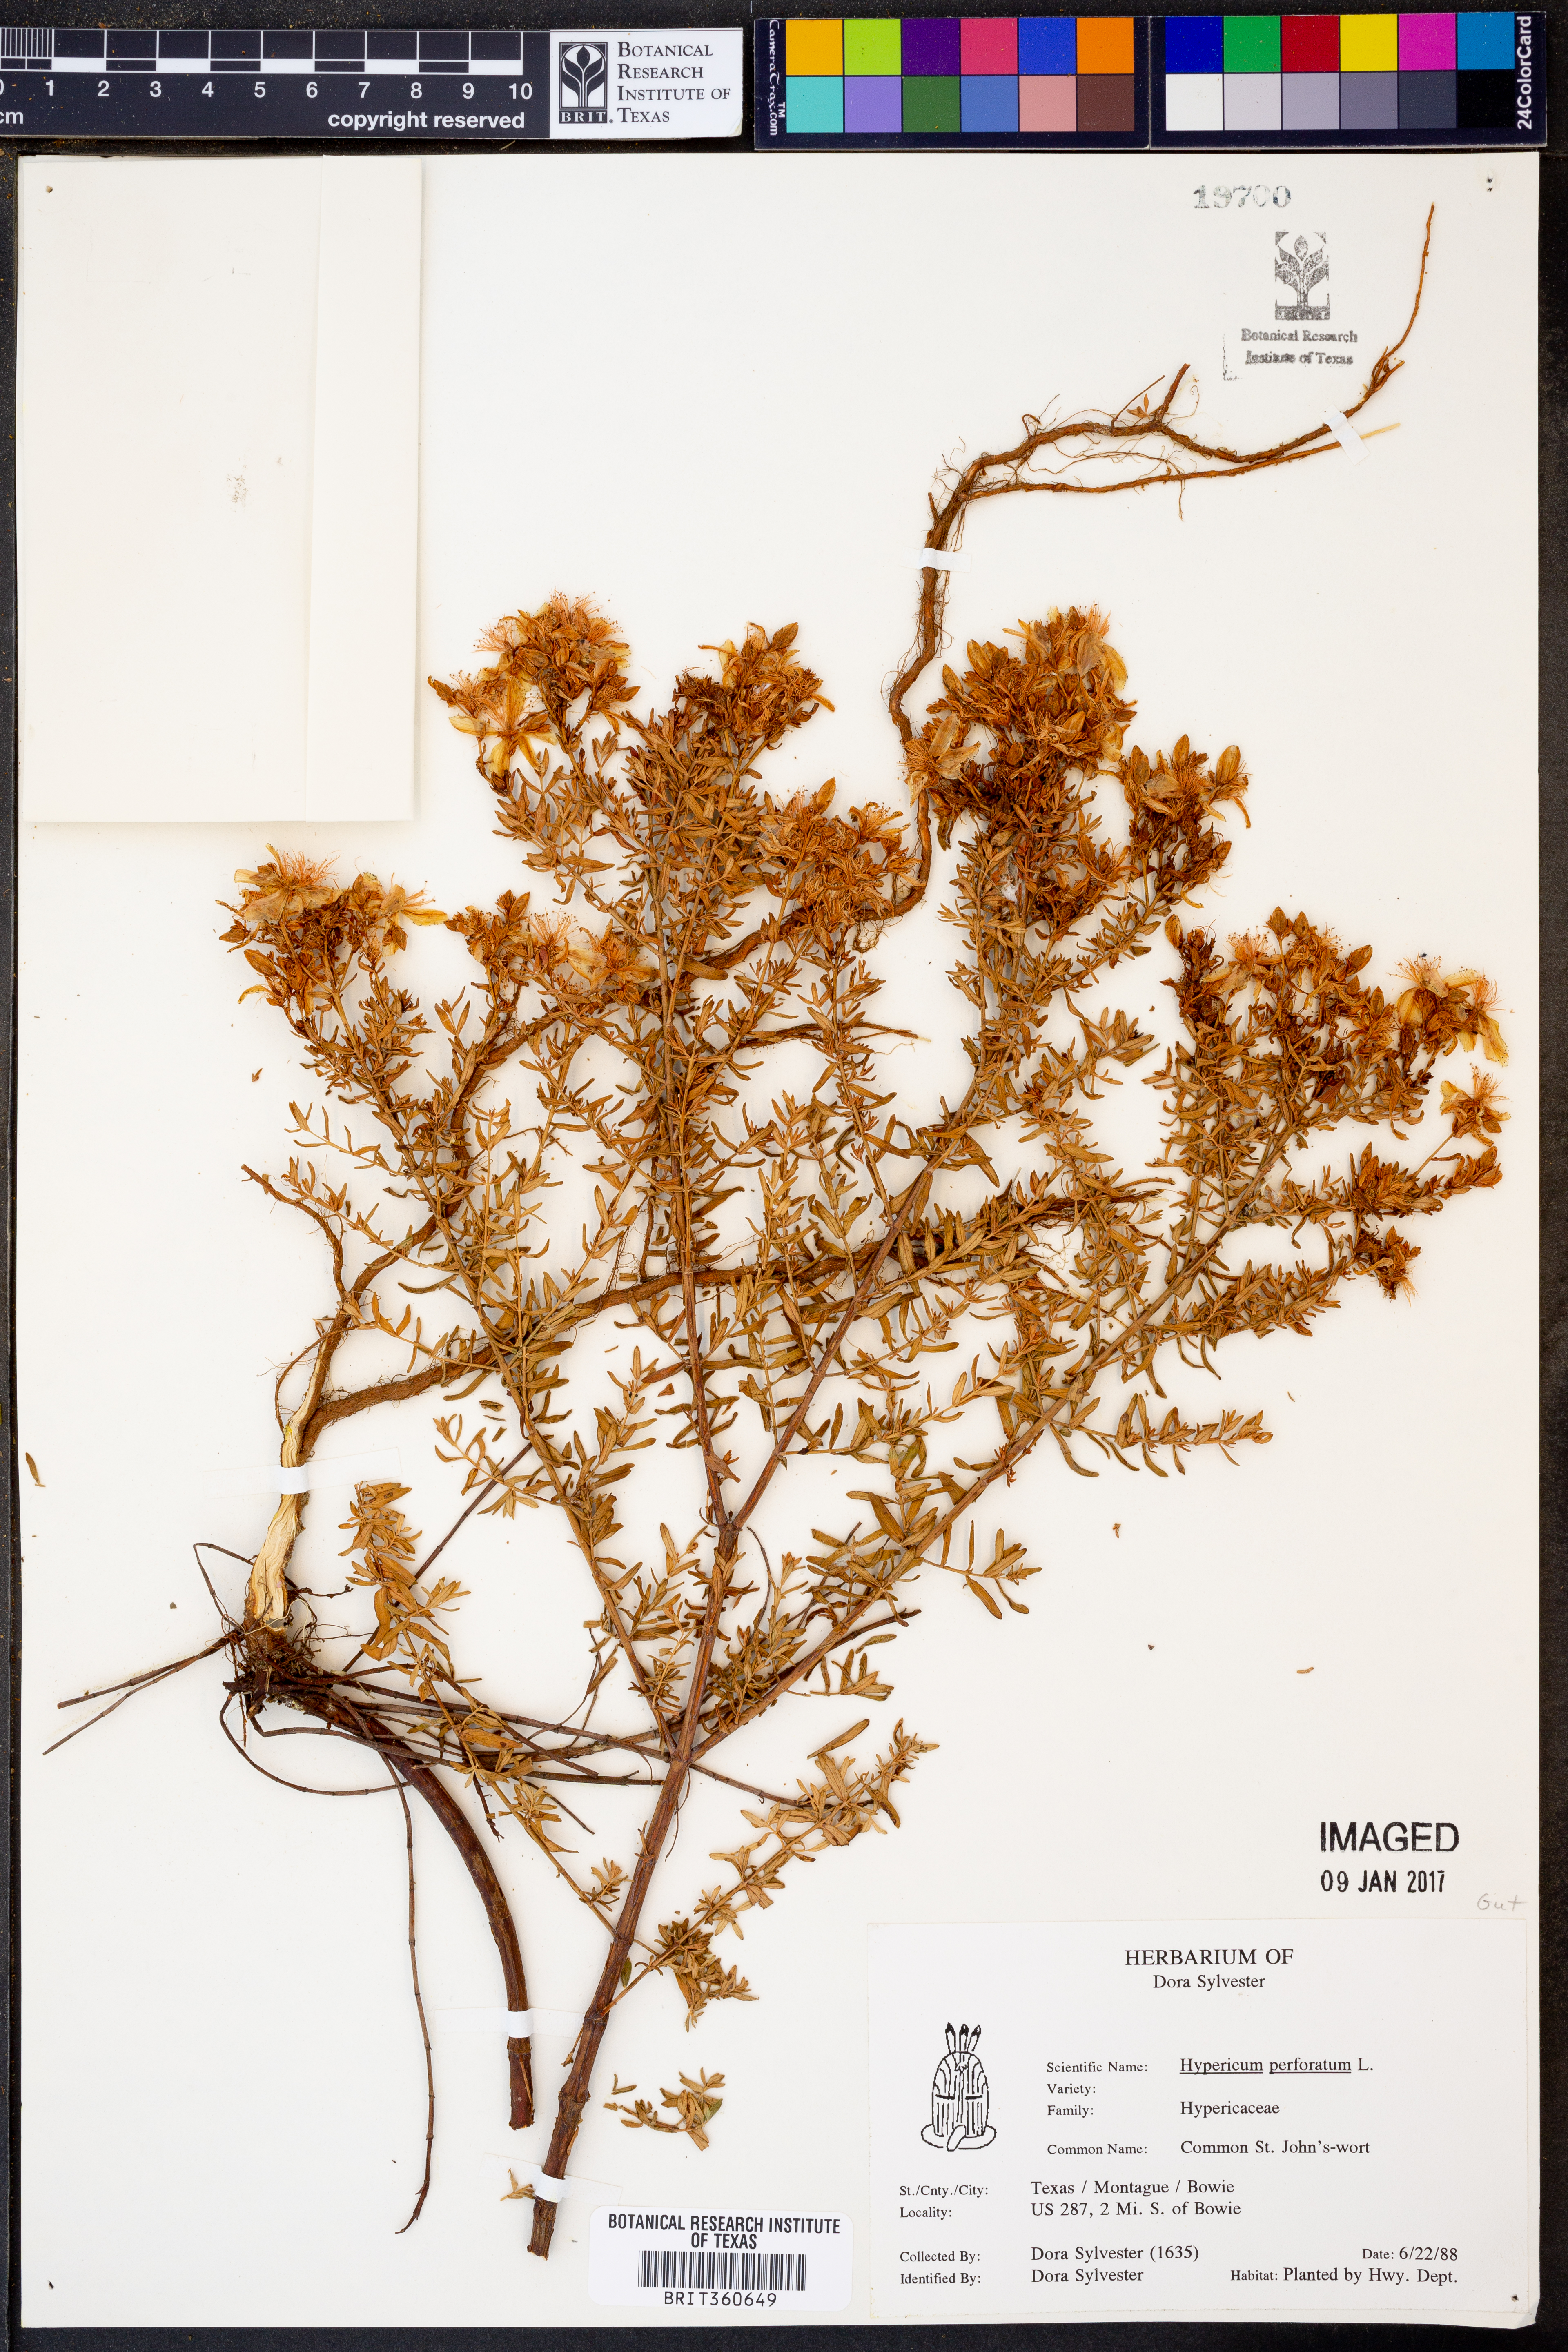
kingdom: Plantae
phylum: Tracheophyta
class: Magnoliopsida
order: Malpighiales
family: Hypericaceae
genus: Hypericum
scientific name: Hypericum perforatum
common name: Common st. johnswort
